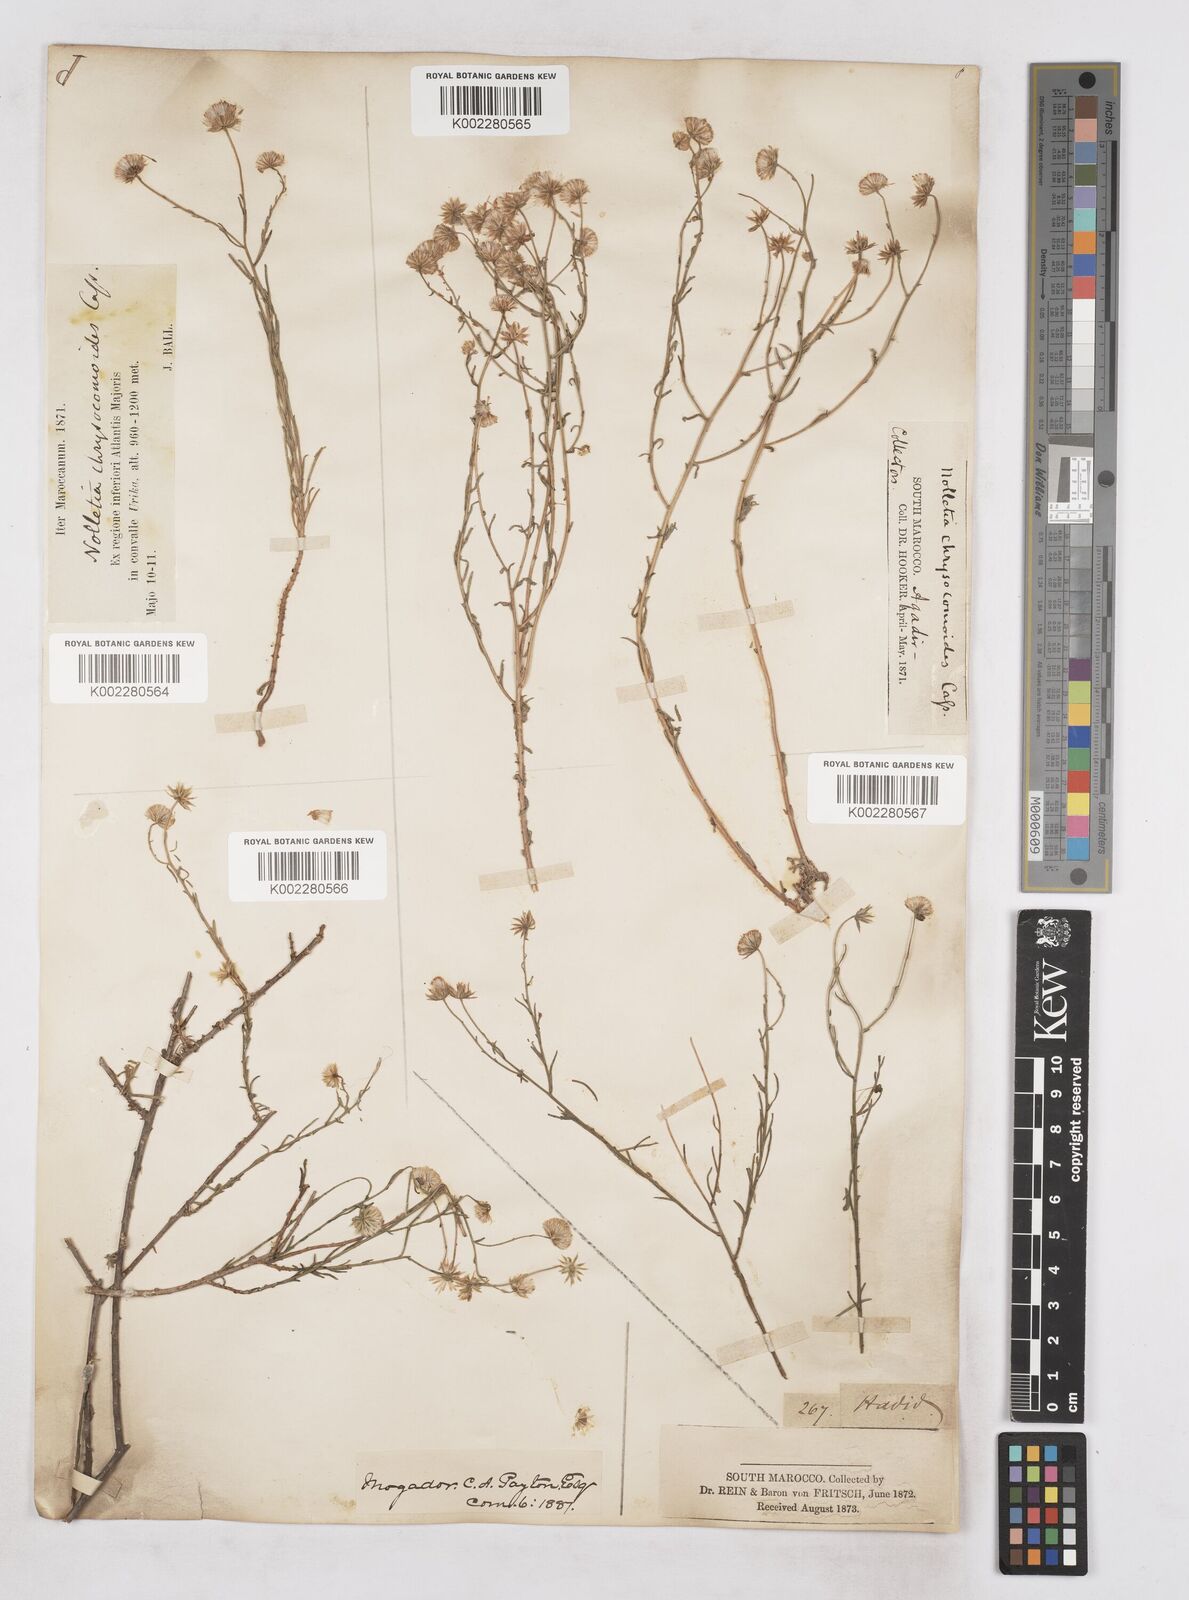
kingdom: Plantae
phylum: Tracheophyta
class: Magnoliopsida
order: Asterales
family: Asteraceae
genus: Nolletia
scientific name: Nolletia chrysocomoides
